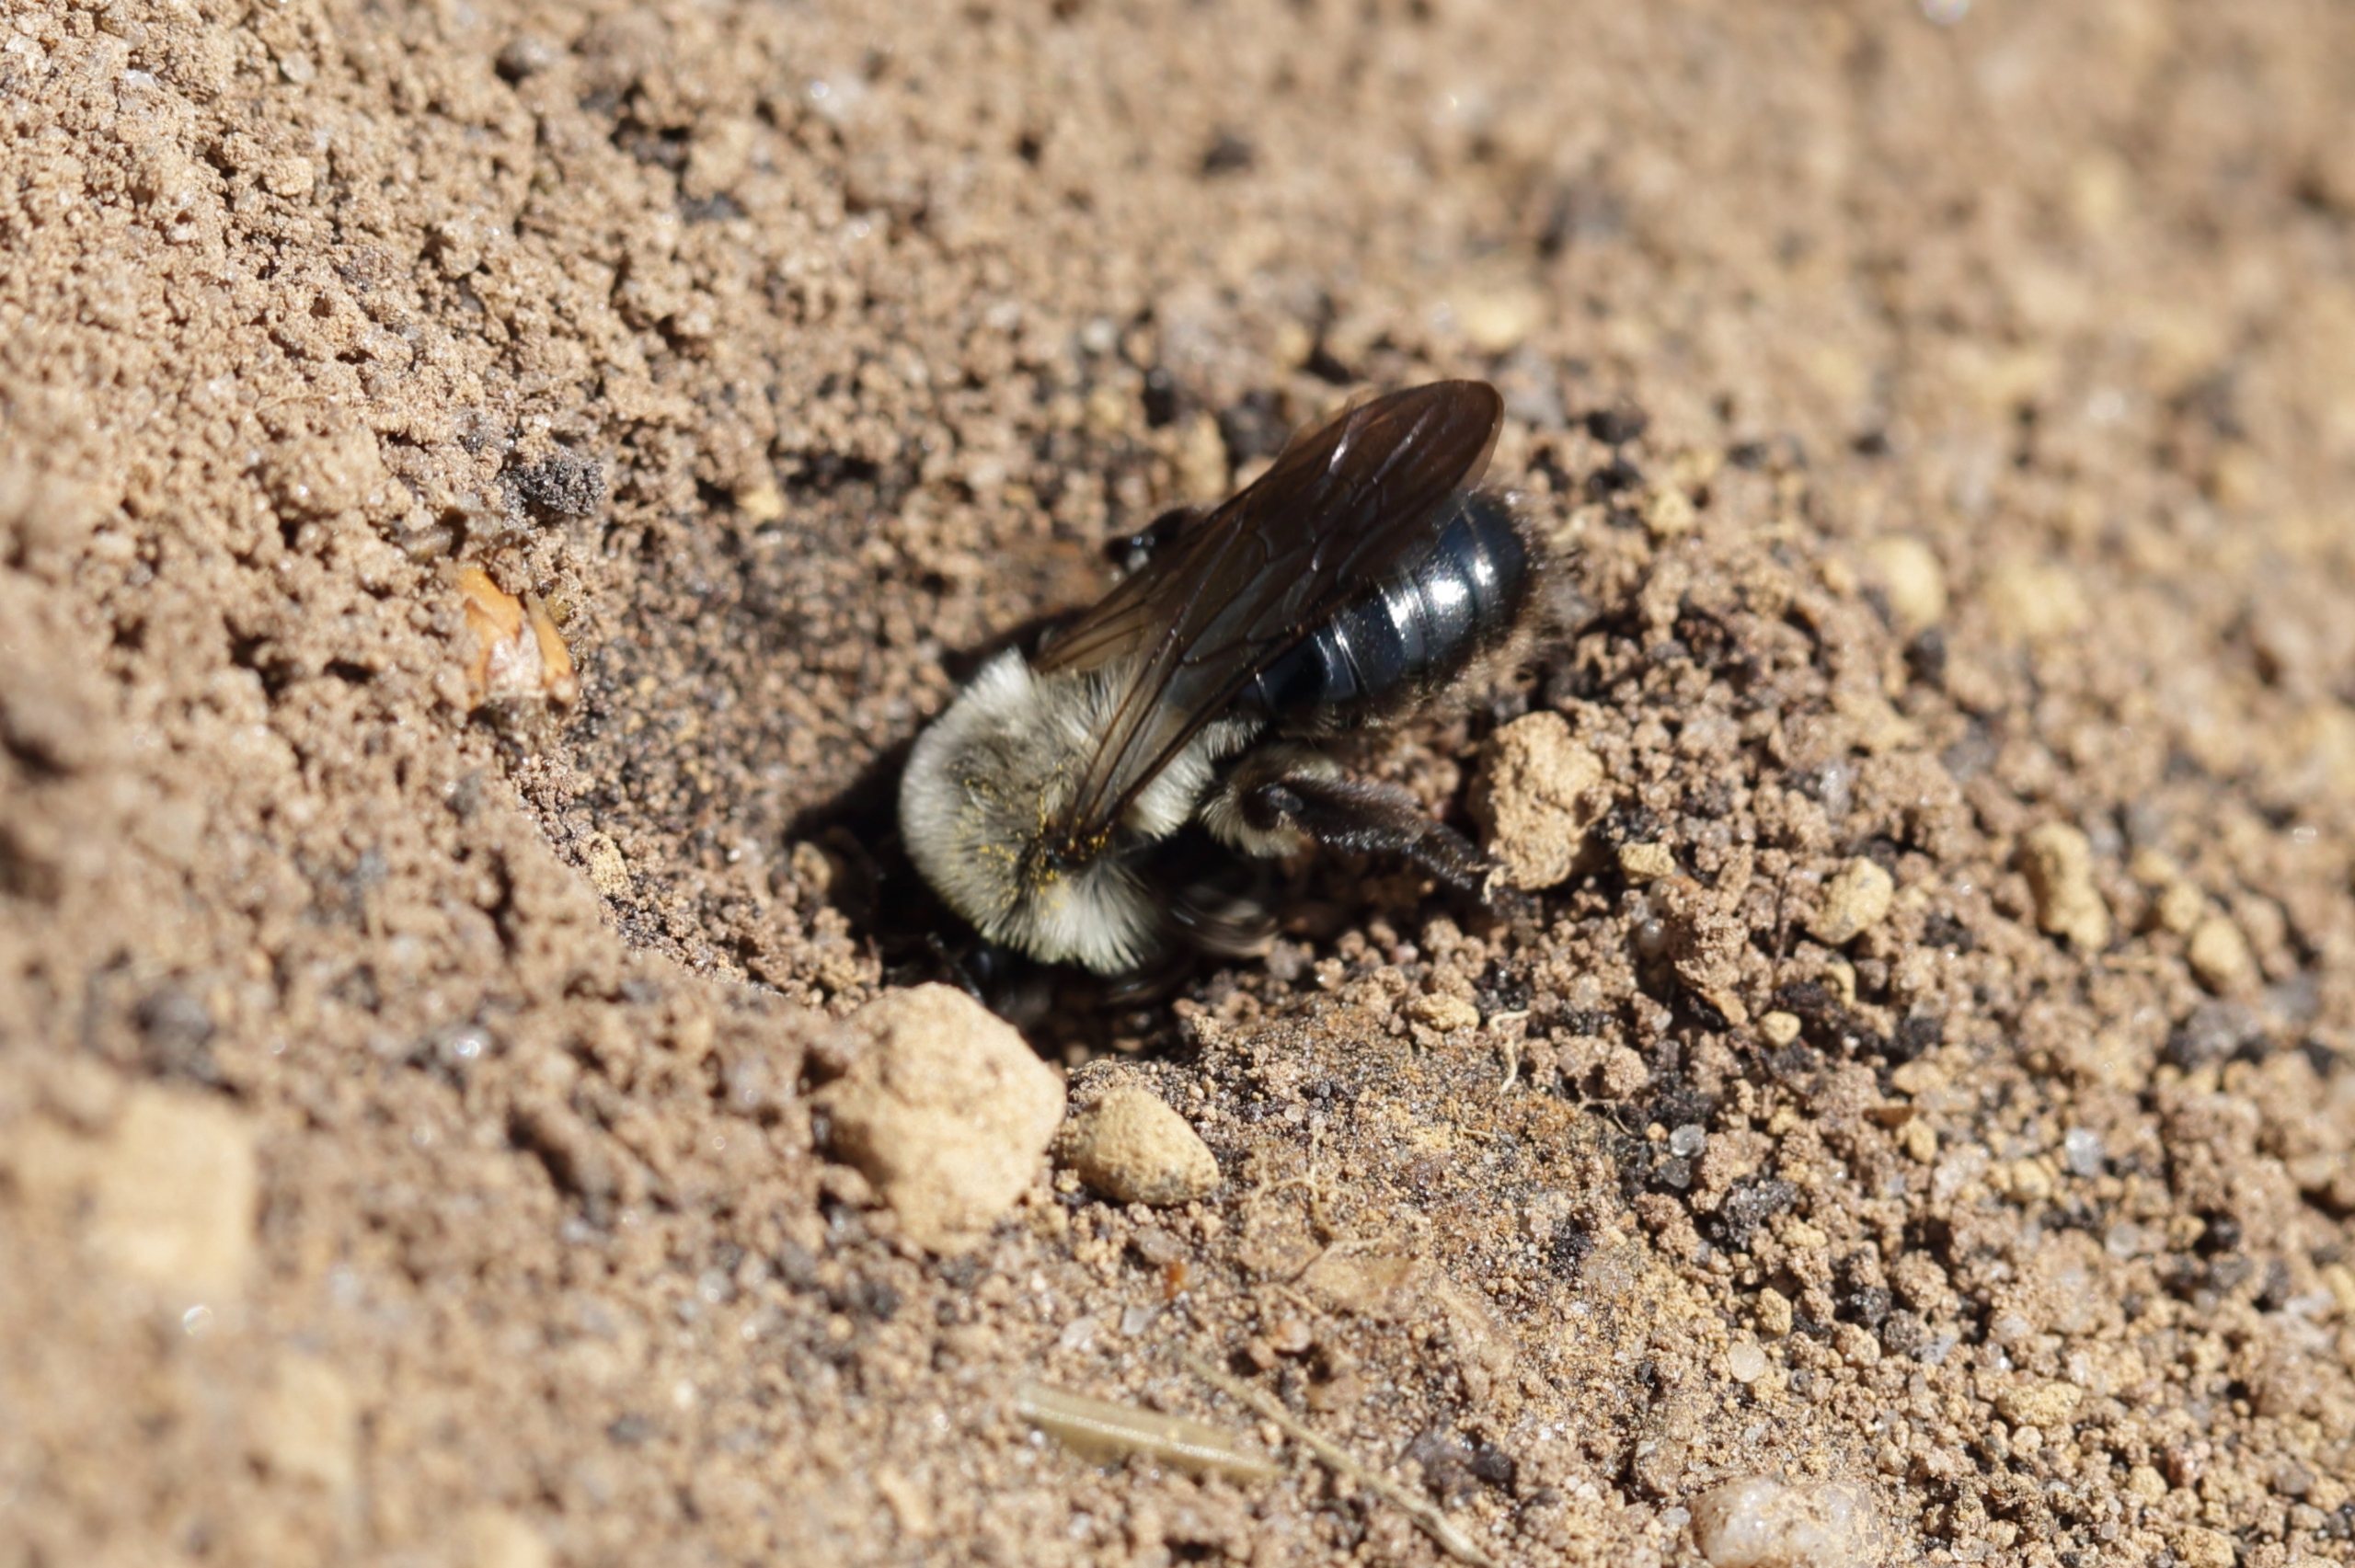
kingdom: Animalia
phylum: Arthropoda
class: Insecta
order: Hymenoptera
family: Andrenidae
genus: Andrena
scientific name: Andrena vaga
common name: Hvidbrystet jordbi
